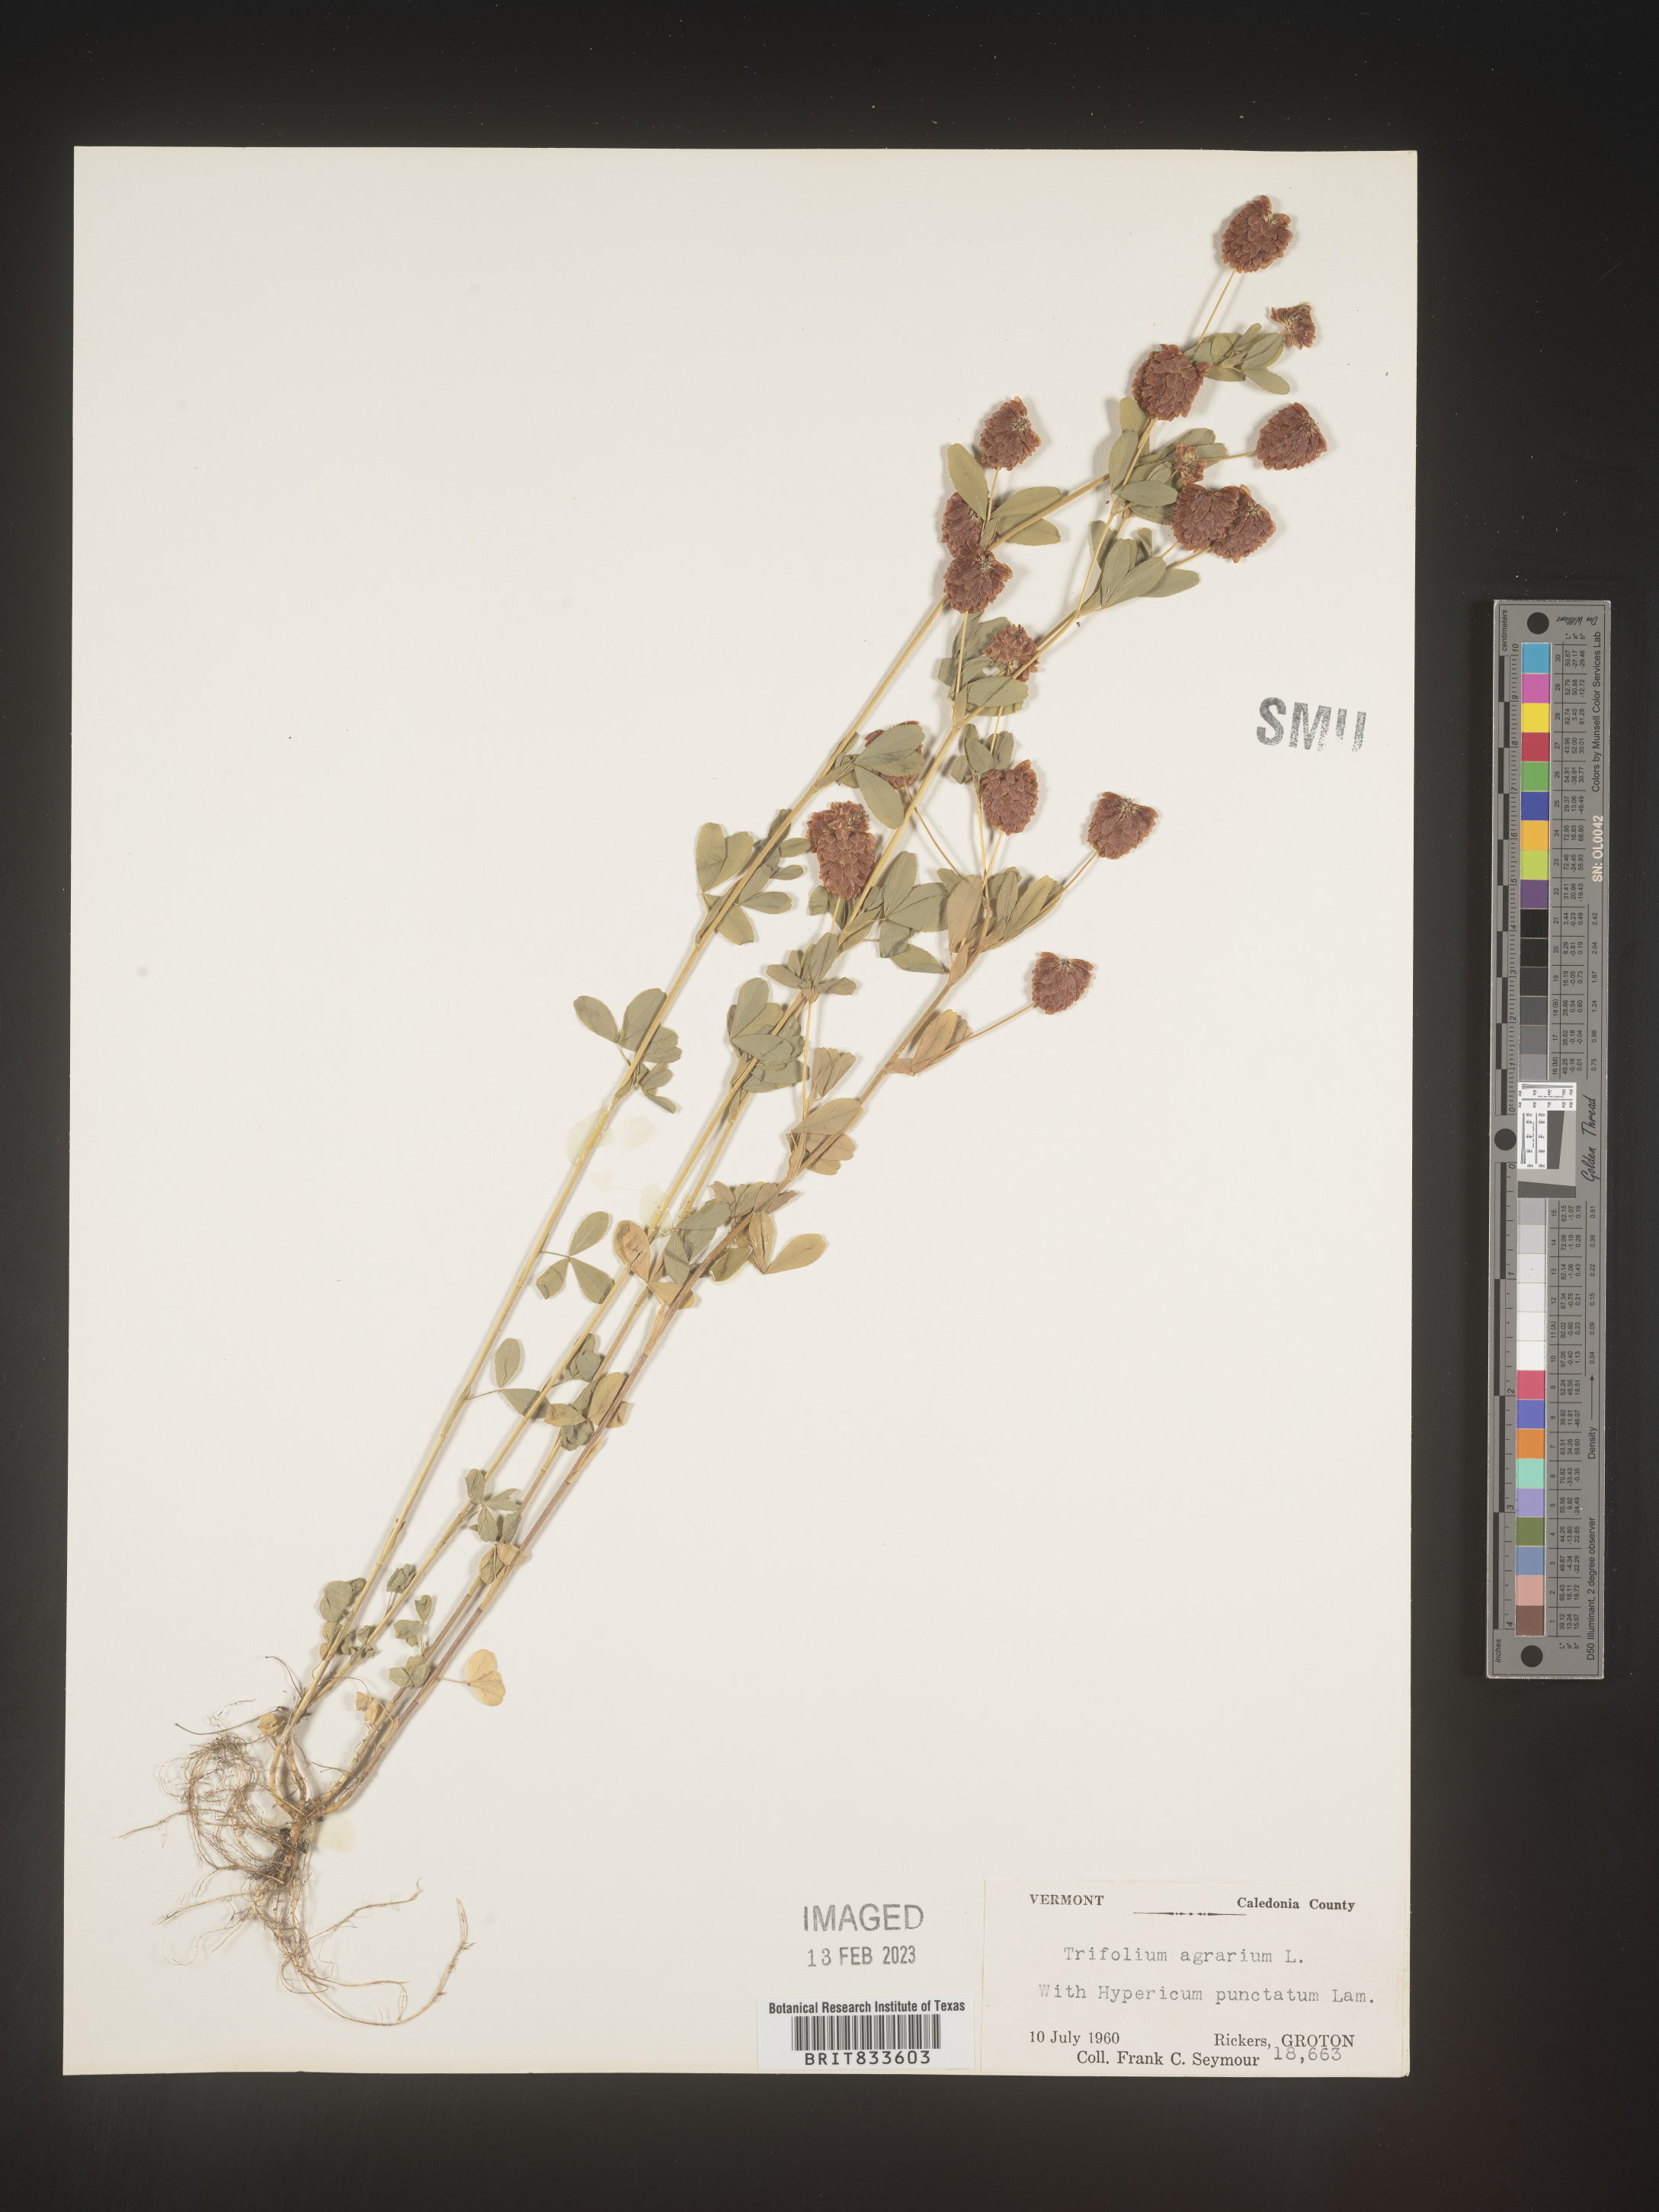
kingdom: Plantae
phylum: Tracheophyta
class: Magnoliopsida
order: Fabales
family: Fabaceae
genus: Trifolium
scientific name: Trifolium agrarium
